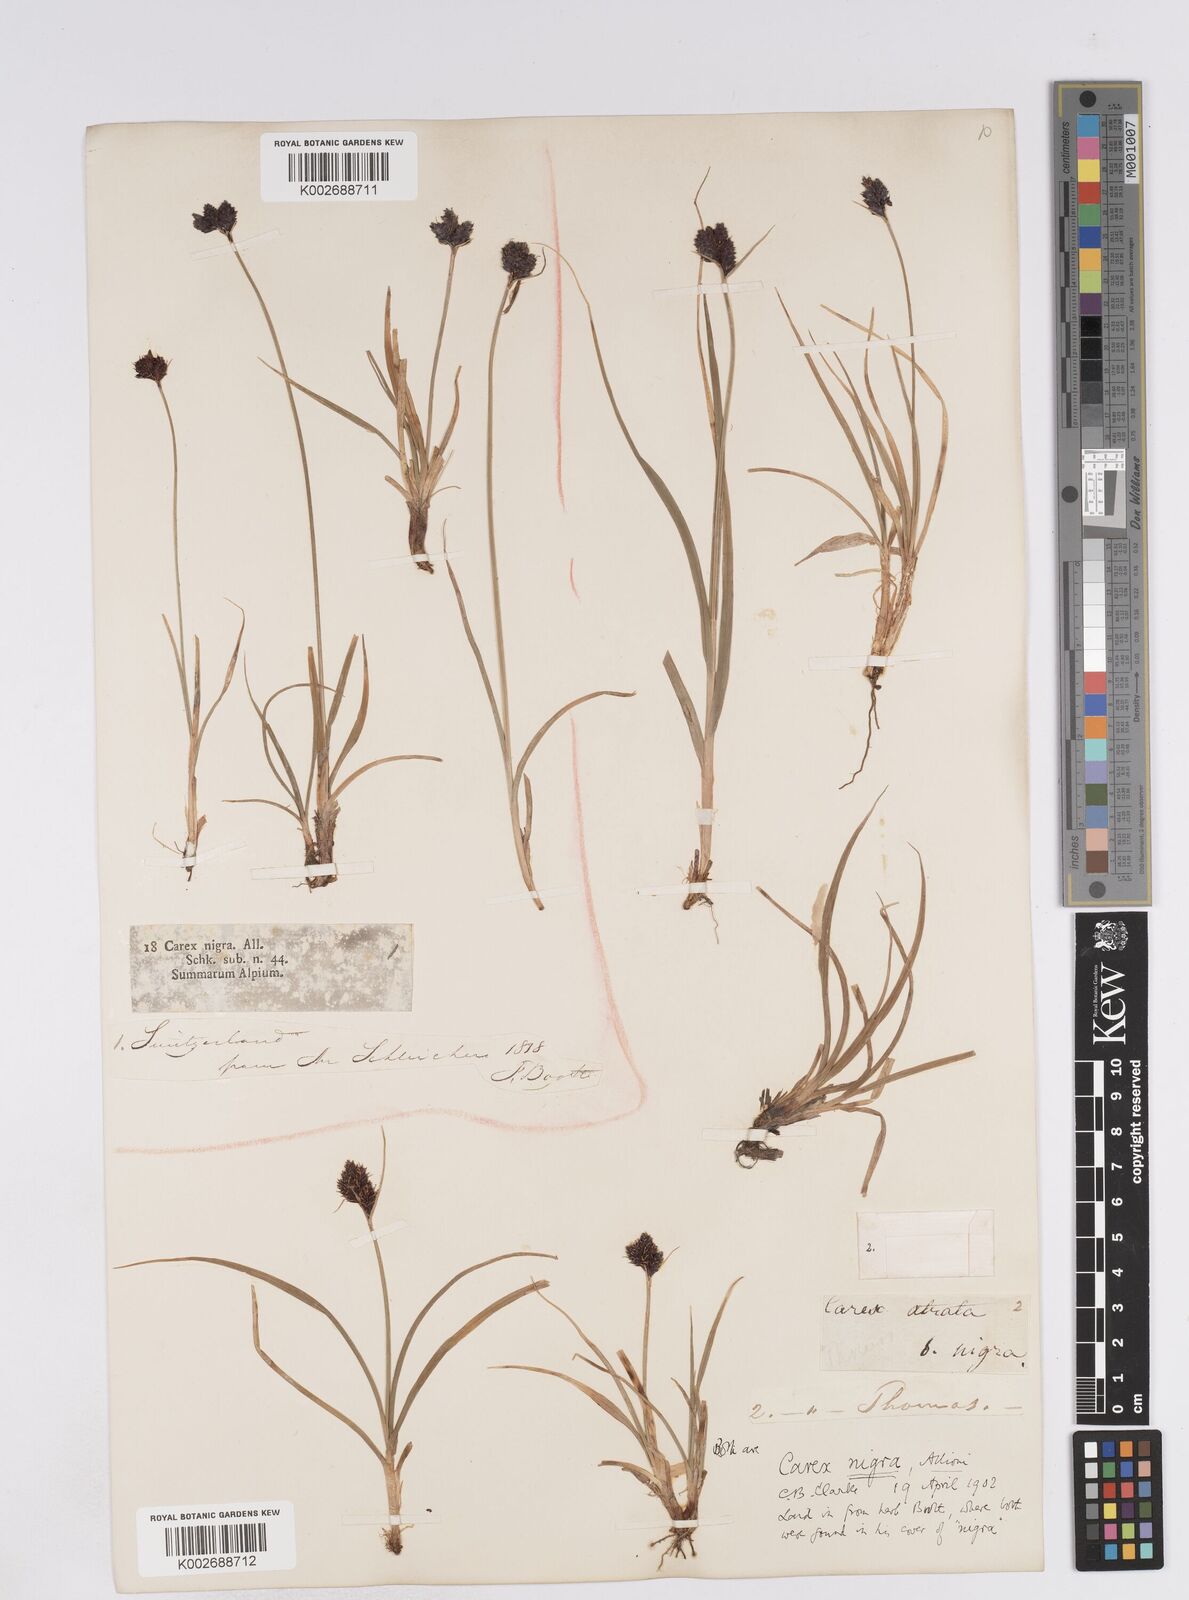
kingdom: Plantae
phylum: Tracheophyta
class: Liliopsida
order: Poales
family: Cyperaceae
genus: Carex
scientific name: Carex parviflora
